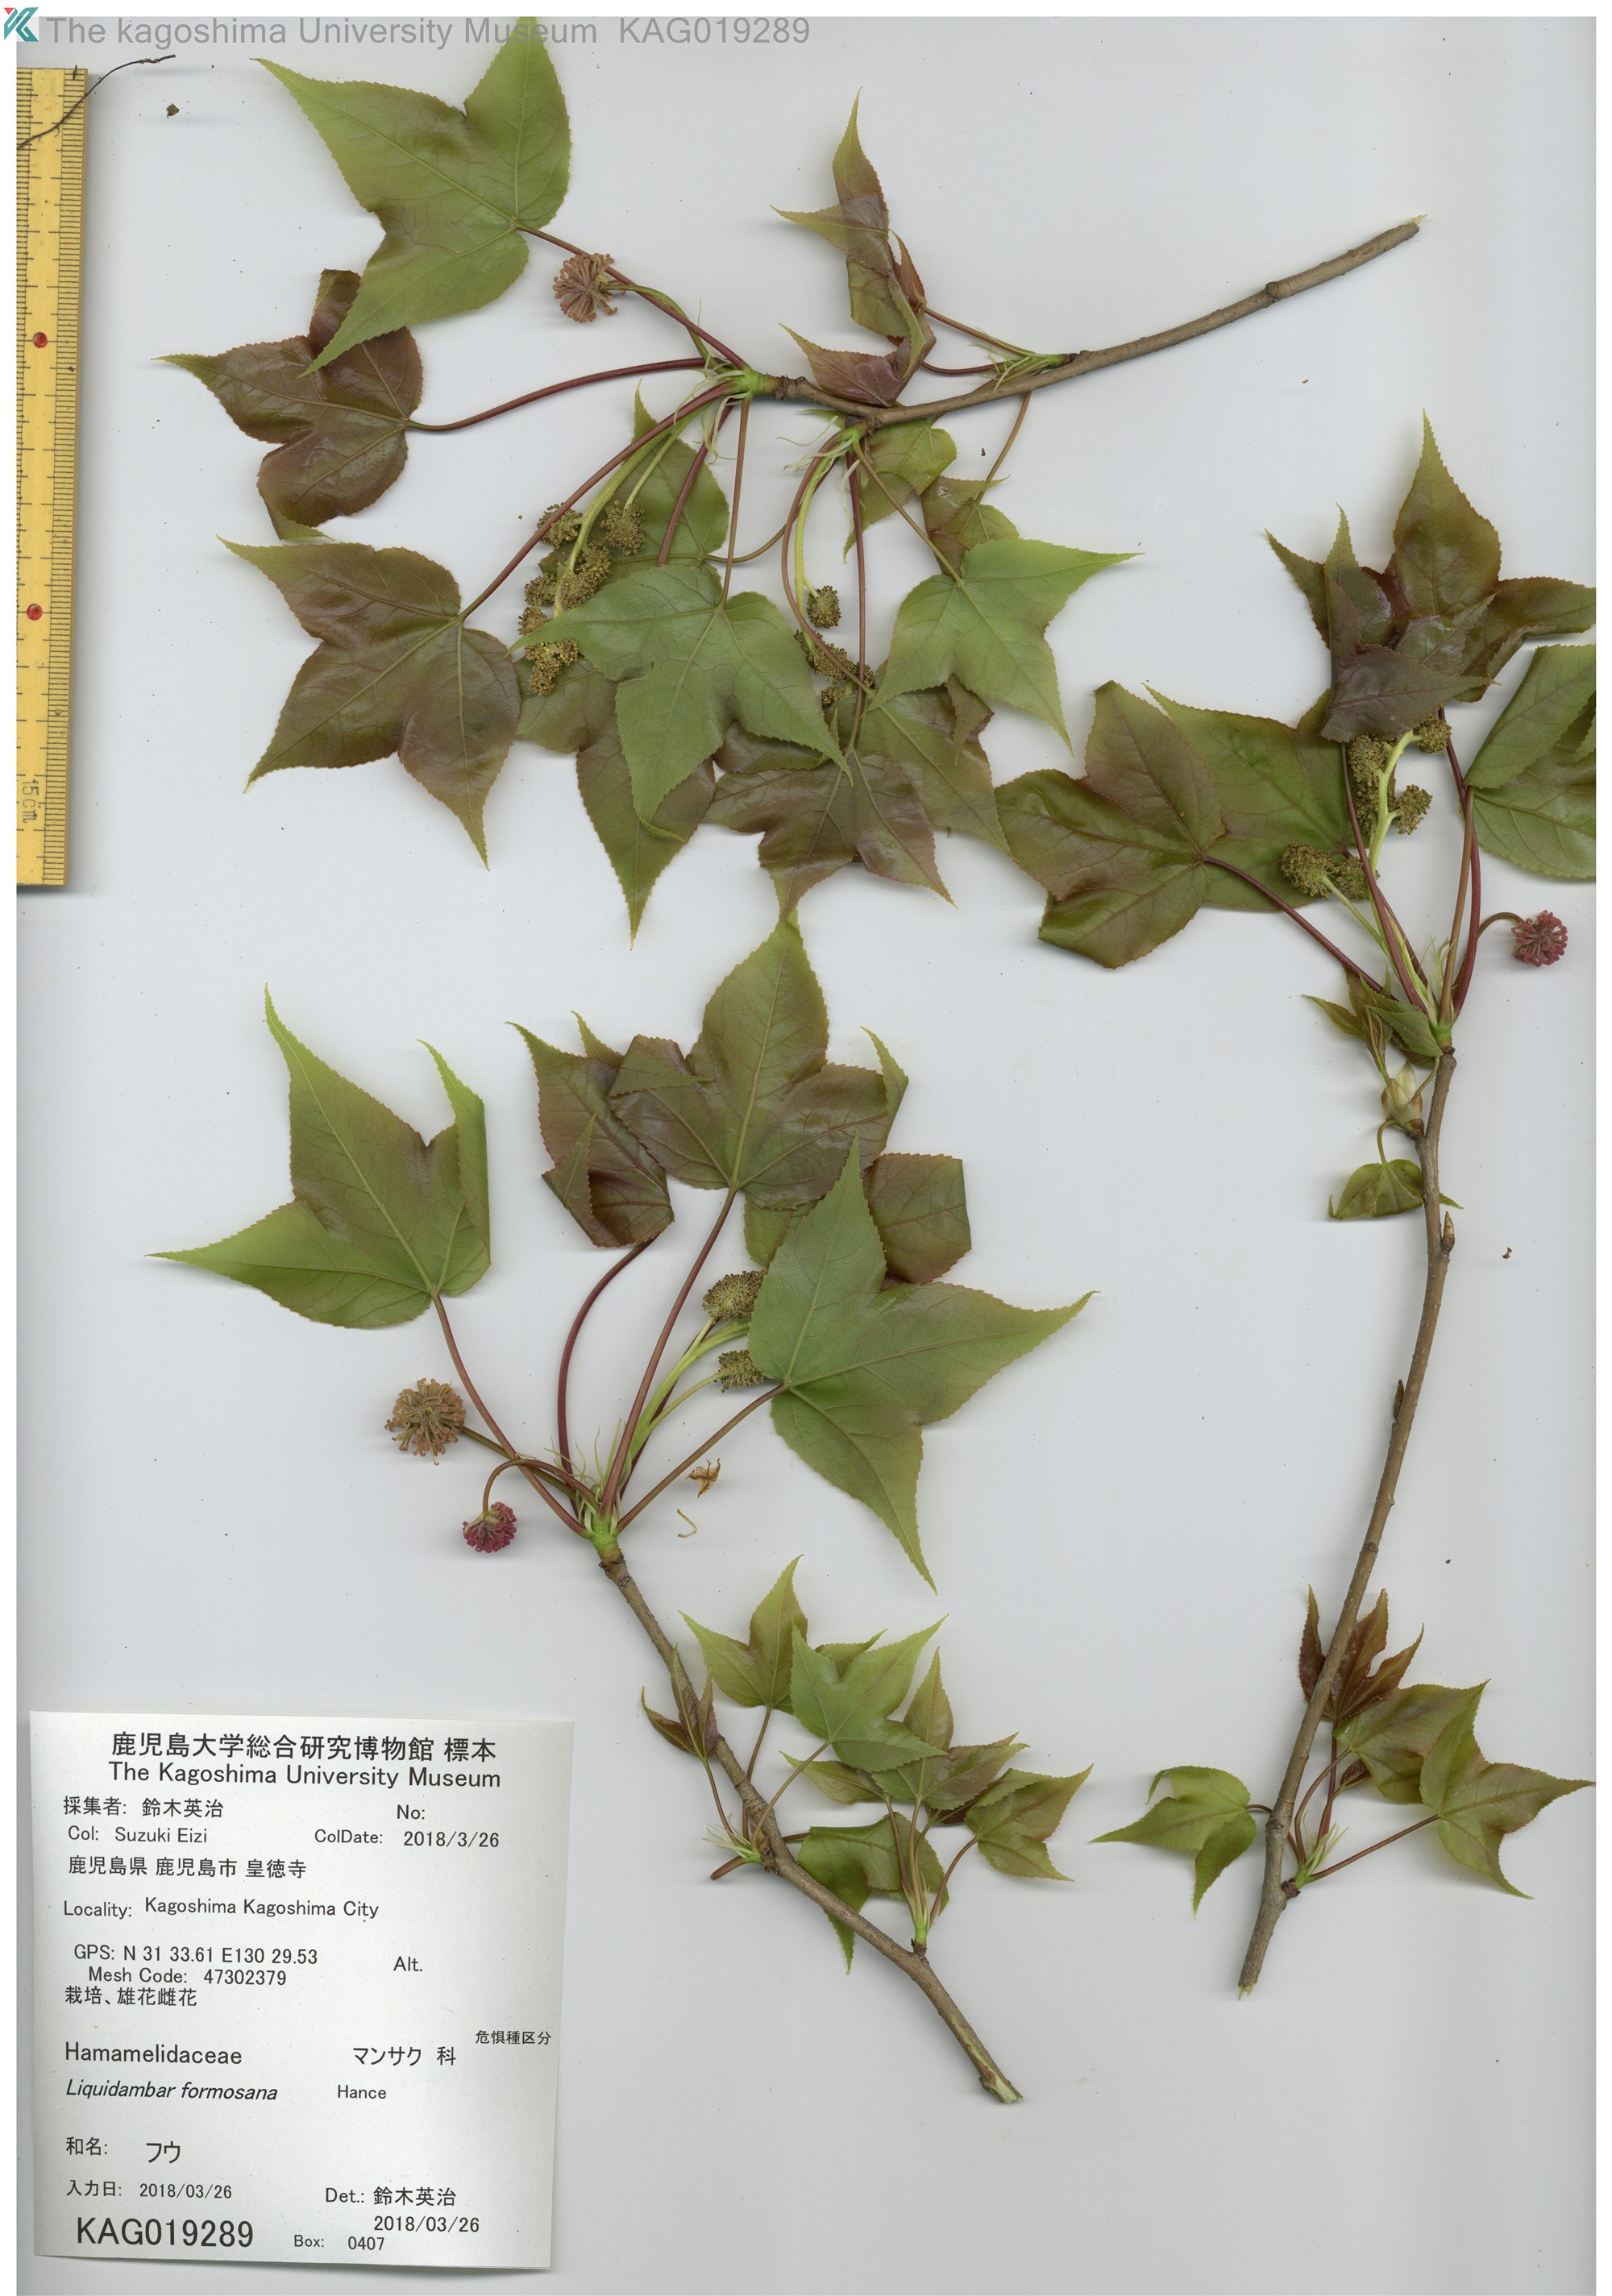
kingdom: Plantae
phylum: Tracheophyta
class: Magnoliopsida
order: Saxifragales
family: Altingiaceae
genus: Liquidambar
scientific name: Liquidambar formosana
